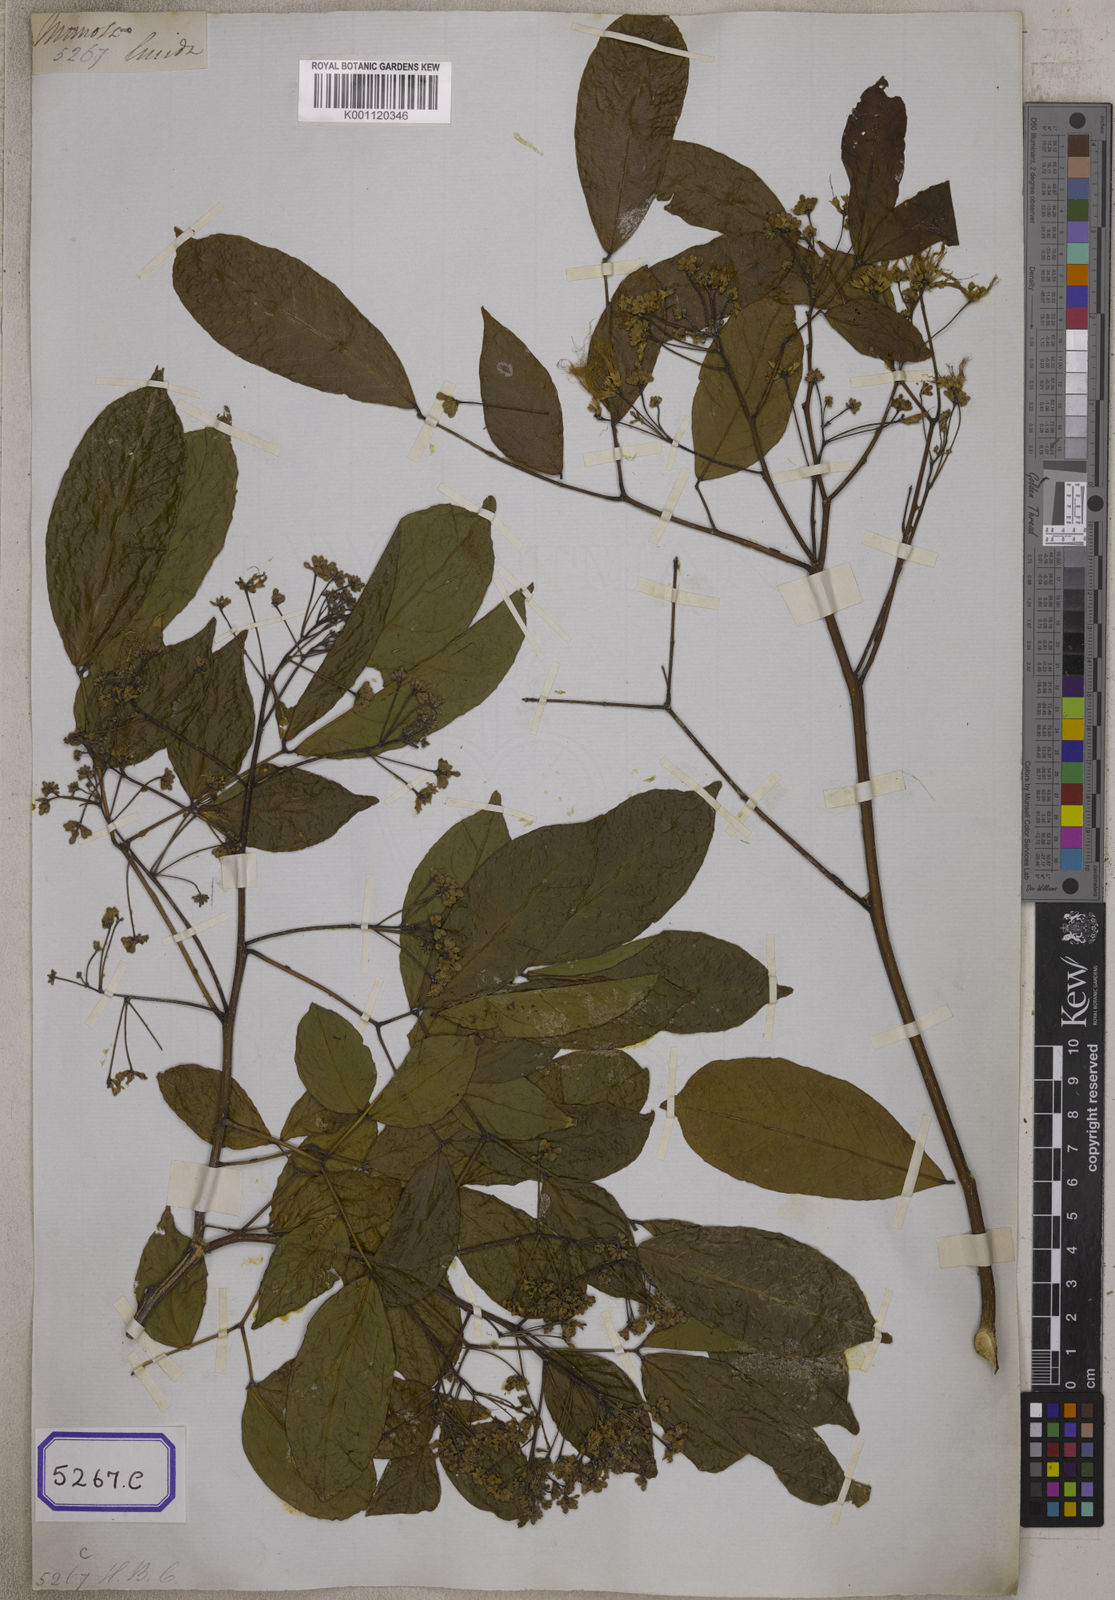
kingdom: Plantae
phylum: Tracheophyta
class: Magnoliopsida
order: Fabales
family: Fabaceae
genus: Albizia
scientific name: Albizia lucidior
